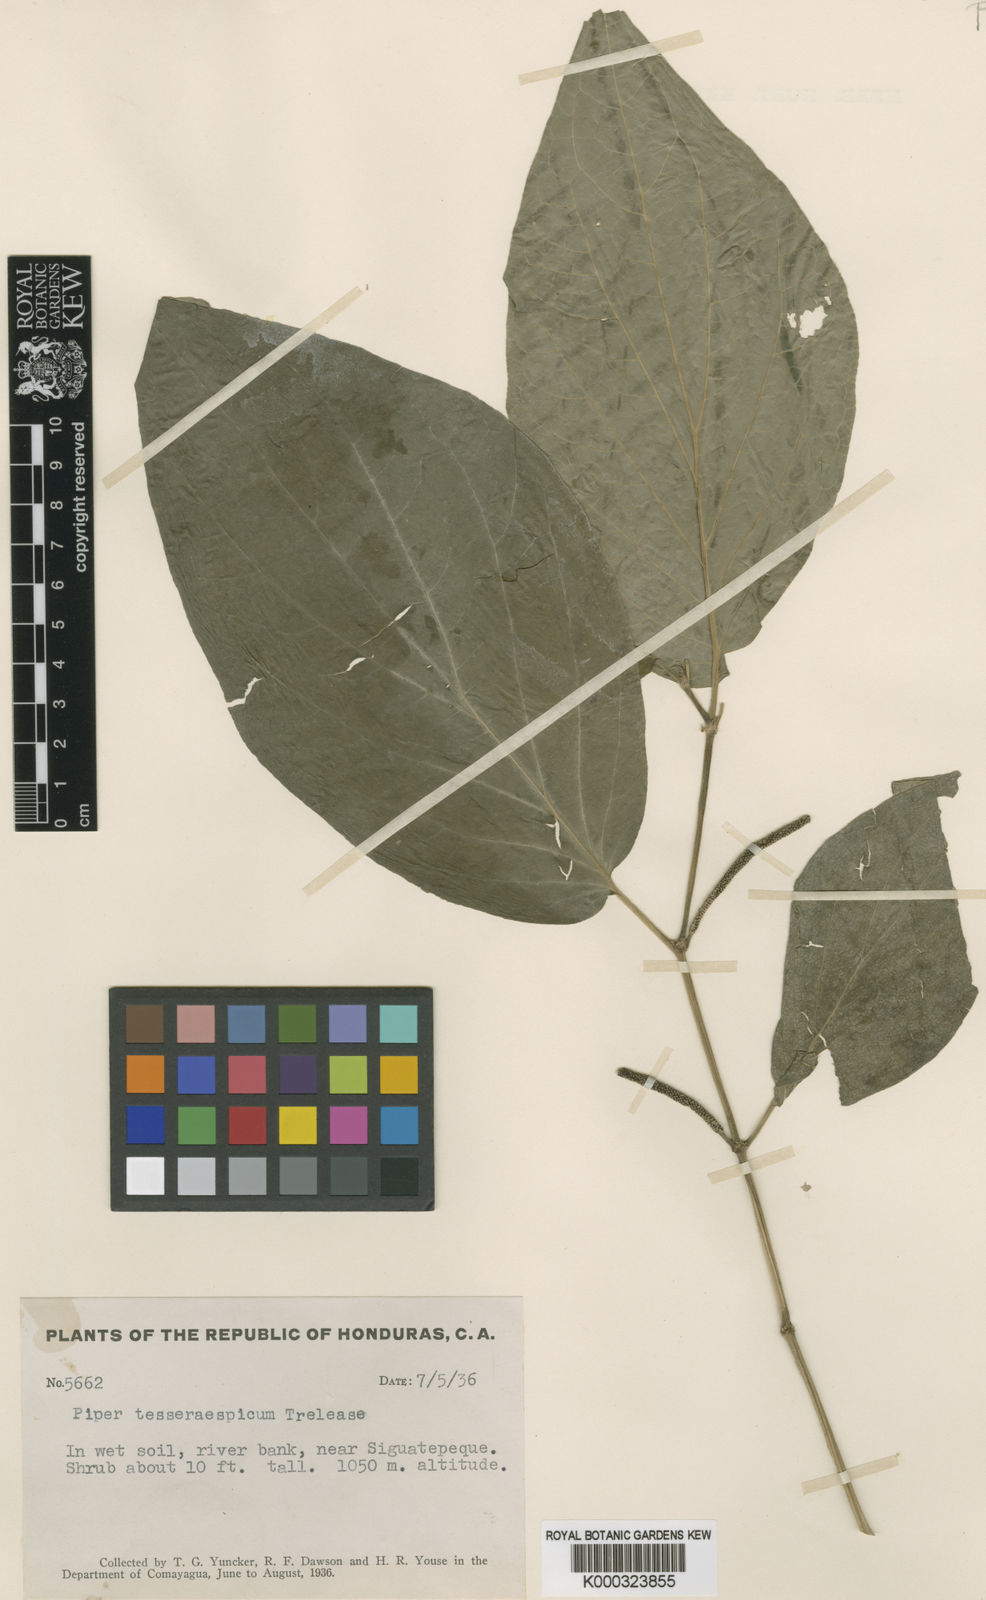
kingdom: Plantae
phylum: Tracheophyta
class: Magnoliopsida
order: Piperales
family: Piperaceae
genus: Piper
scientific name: Piper pseudofuligineum
